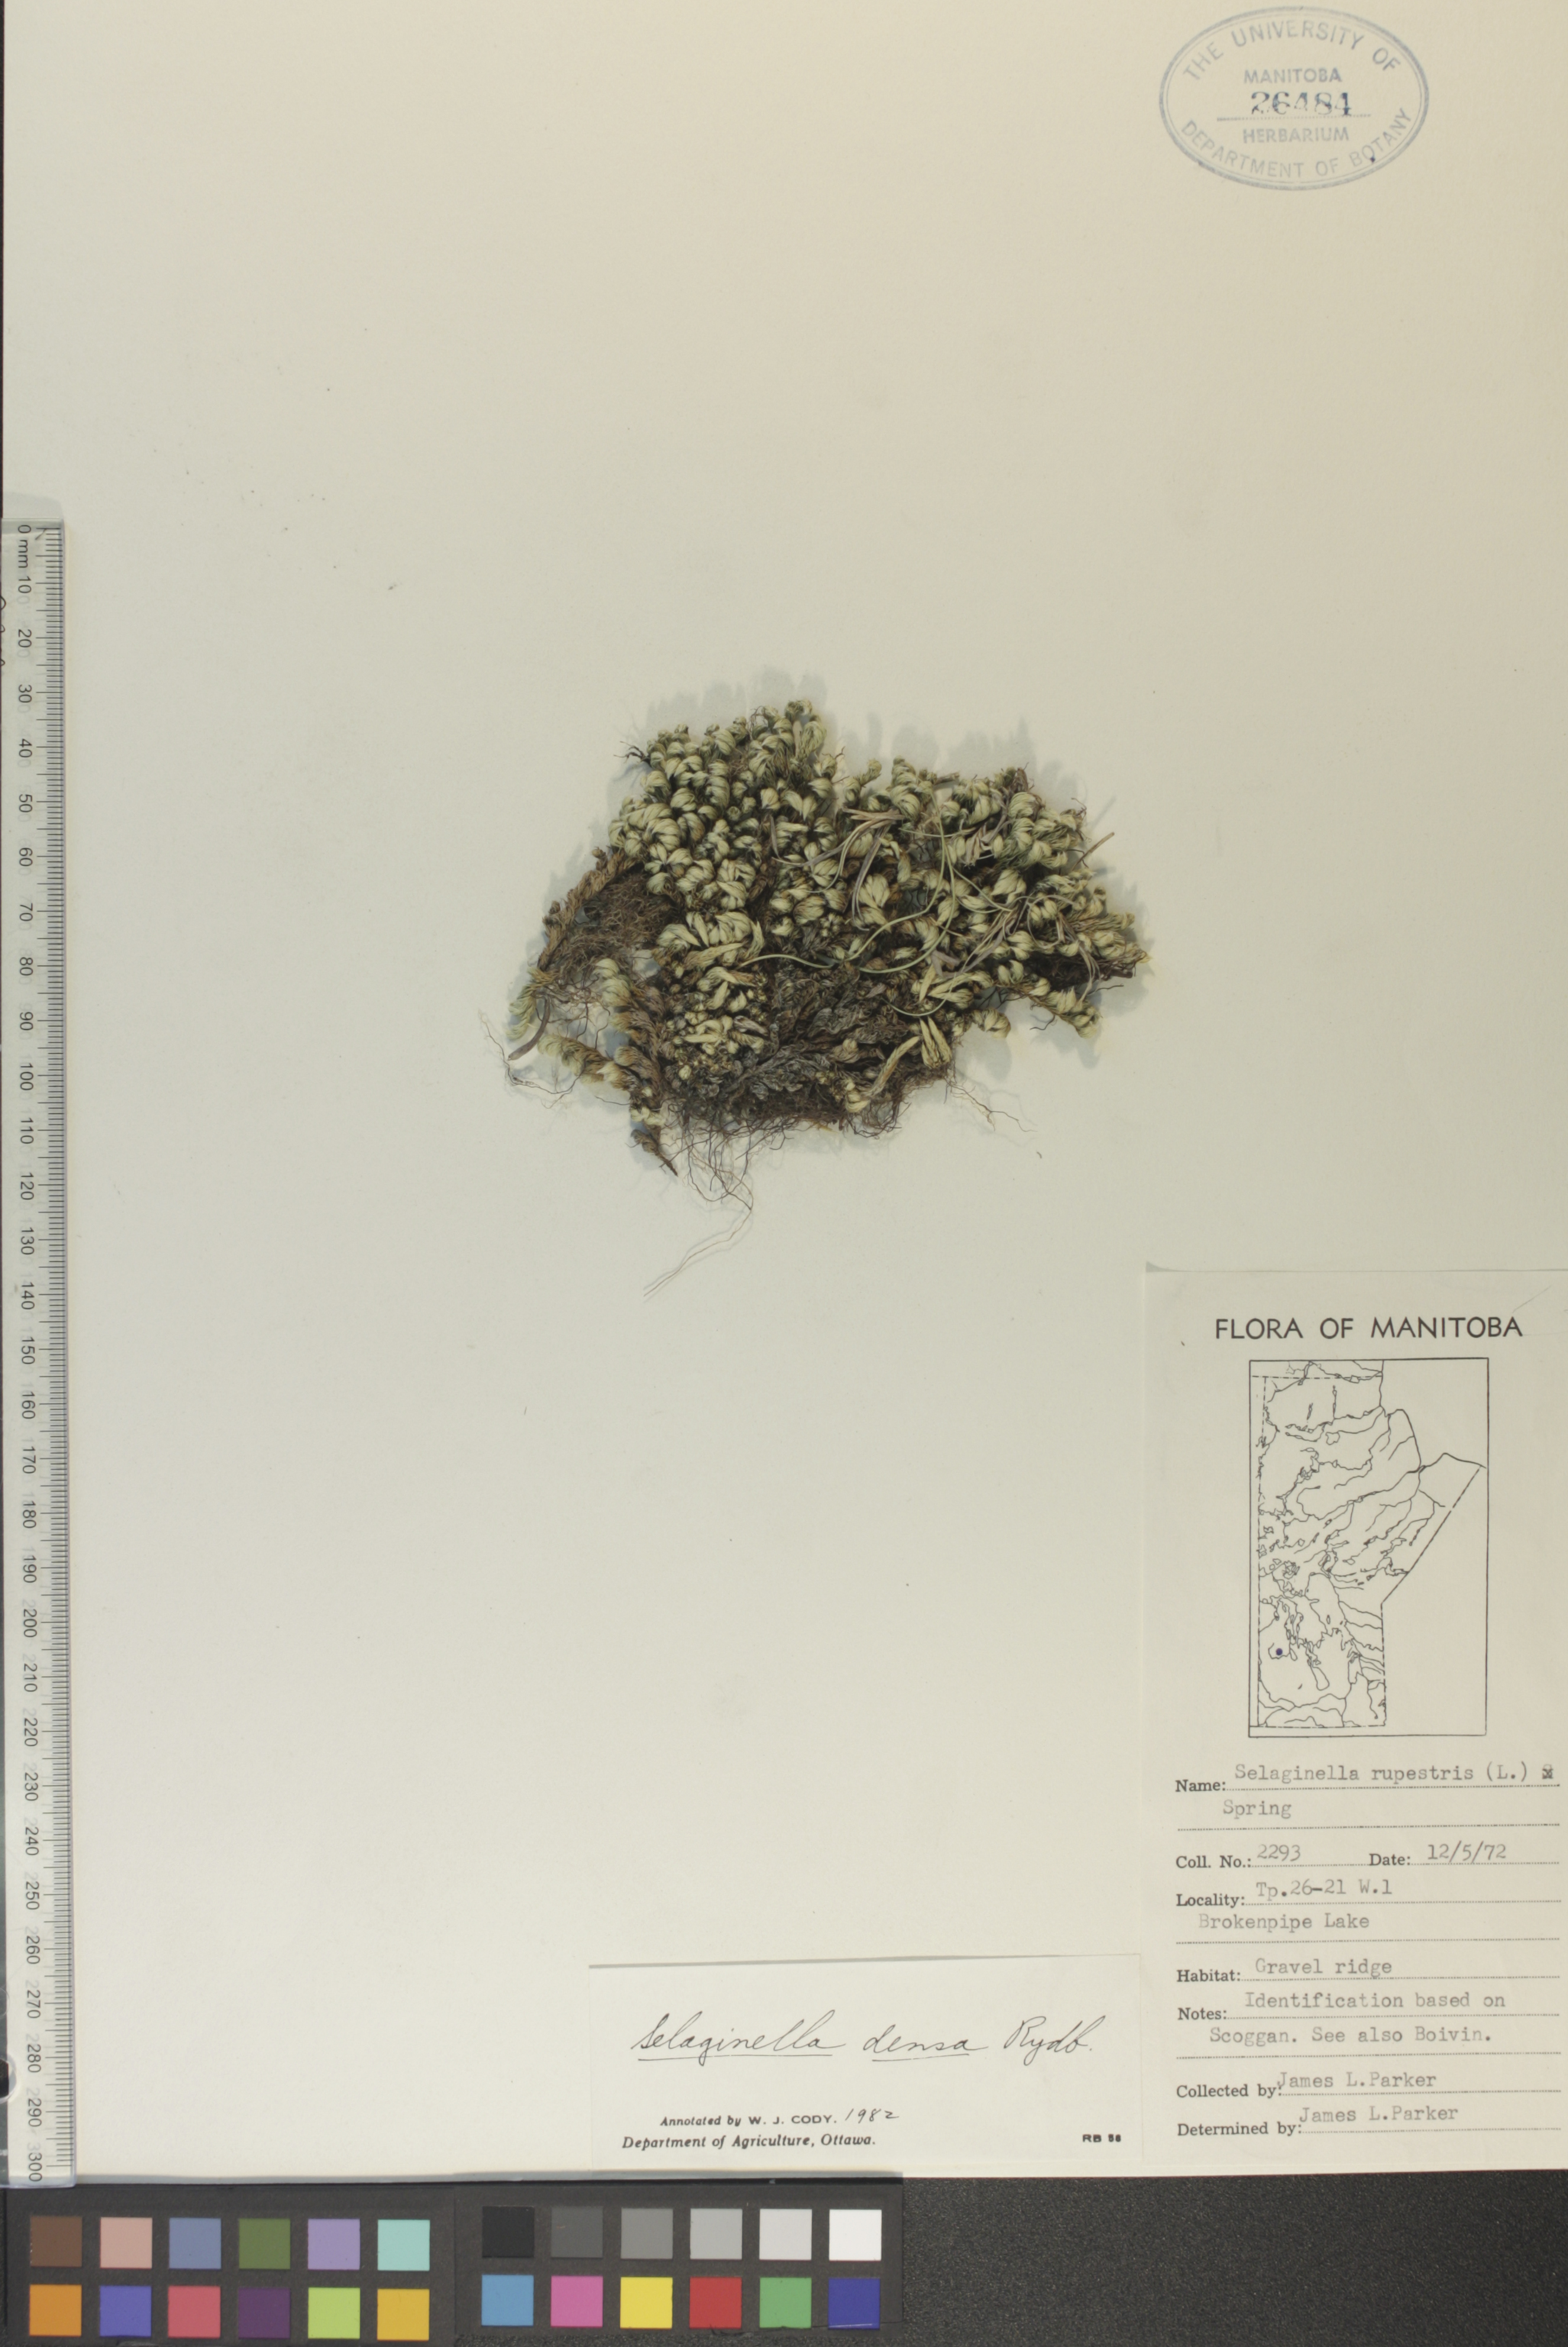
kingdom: Plantae
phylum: Tracheophyta
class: Lycopodiopsida
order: Selaginellales
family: Selaginellaceae
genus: Selaginella
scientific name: Selaginella densa
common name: Mountain spike-moss
